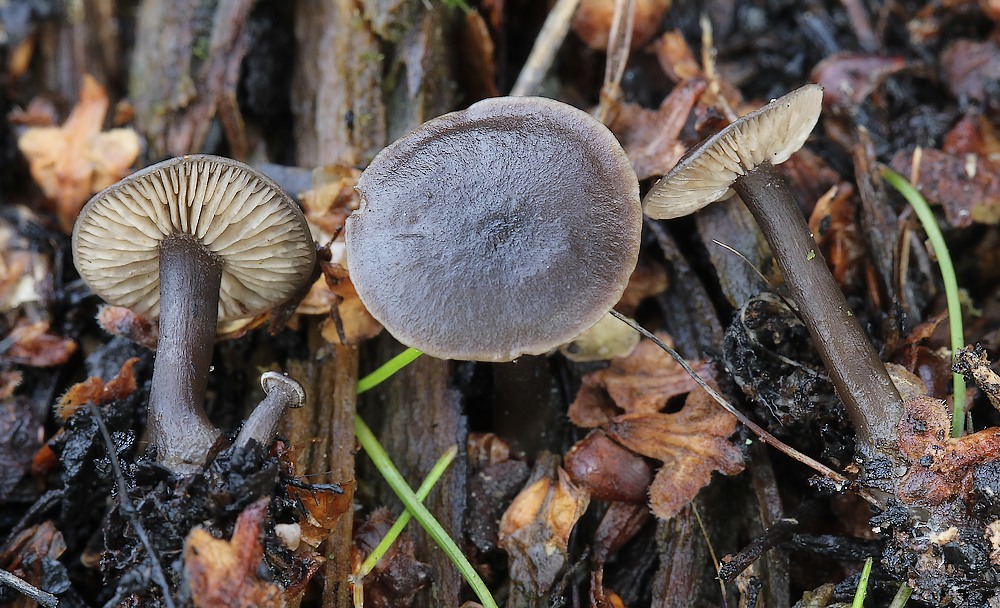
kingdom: Fungi
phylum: Basidiomycota
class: Agaricomycetes
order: Agaricales
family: Lyophyllaceae
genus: Tephrocybe
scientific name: Tephrocybe
